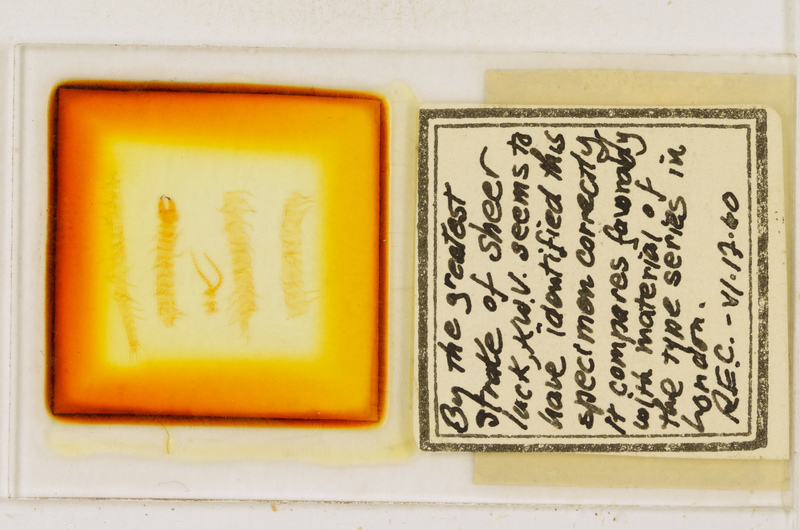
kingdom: Animalia
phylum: Arthropoda
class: Chilopoda
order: Geophilomorpha
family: Geophilidae
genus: Pachymerium
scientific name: Pachymerium ferrugineum
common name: Centipede
